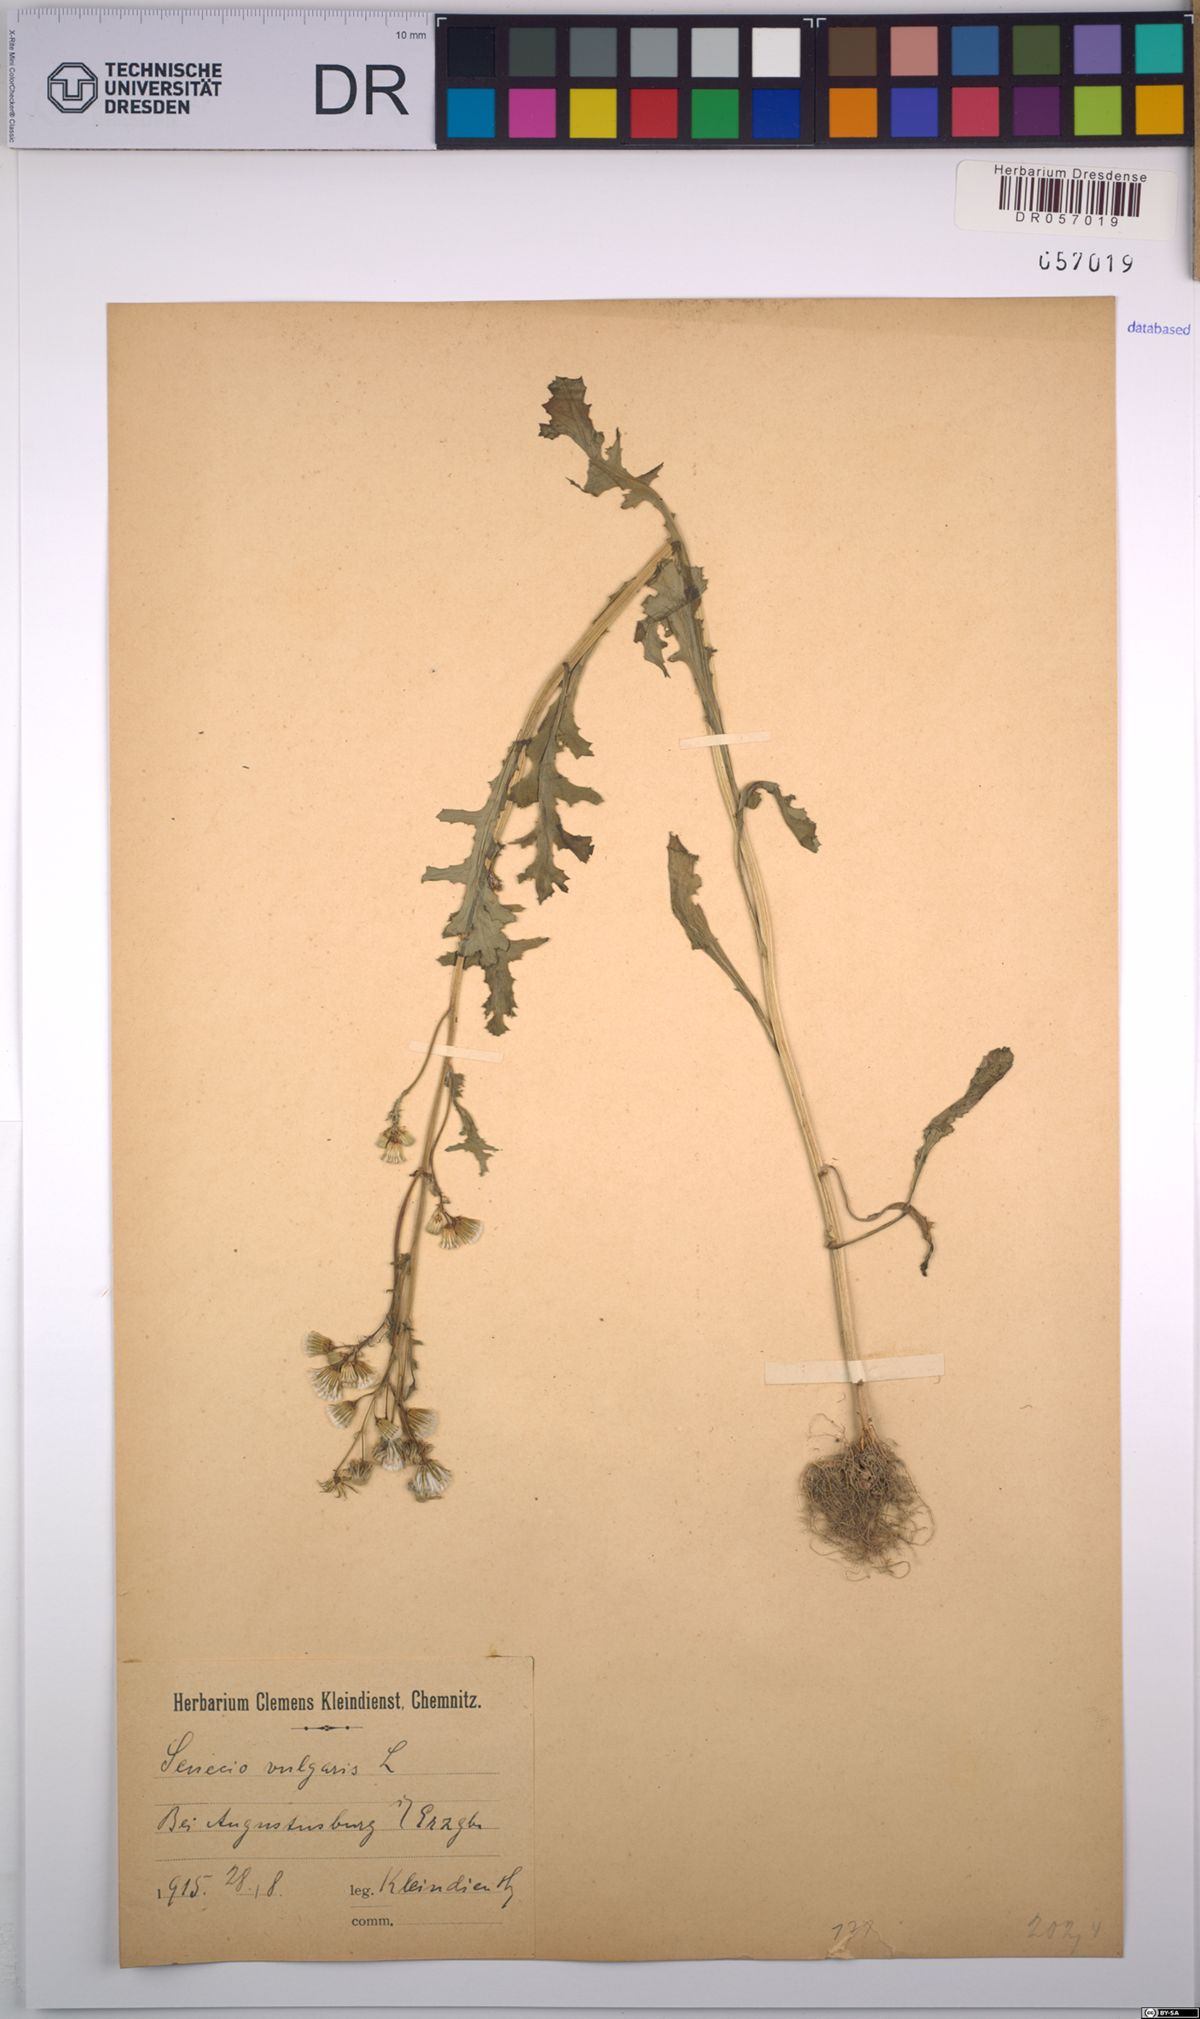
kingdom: Plantae
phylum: Tracheophyta
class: Magnoliopsida
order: Asterales
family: Asteraceae
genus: Senecio
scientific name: Senecio vulgaris
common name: Old-man-in-the-spring
